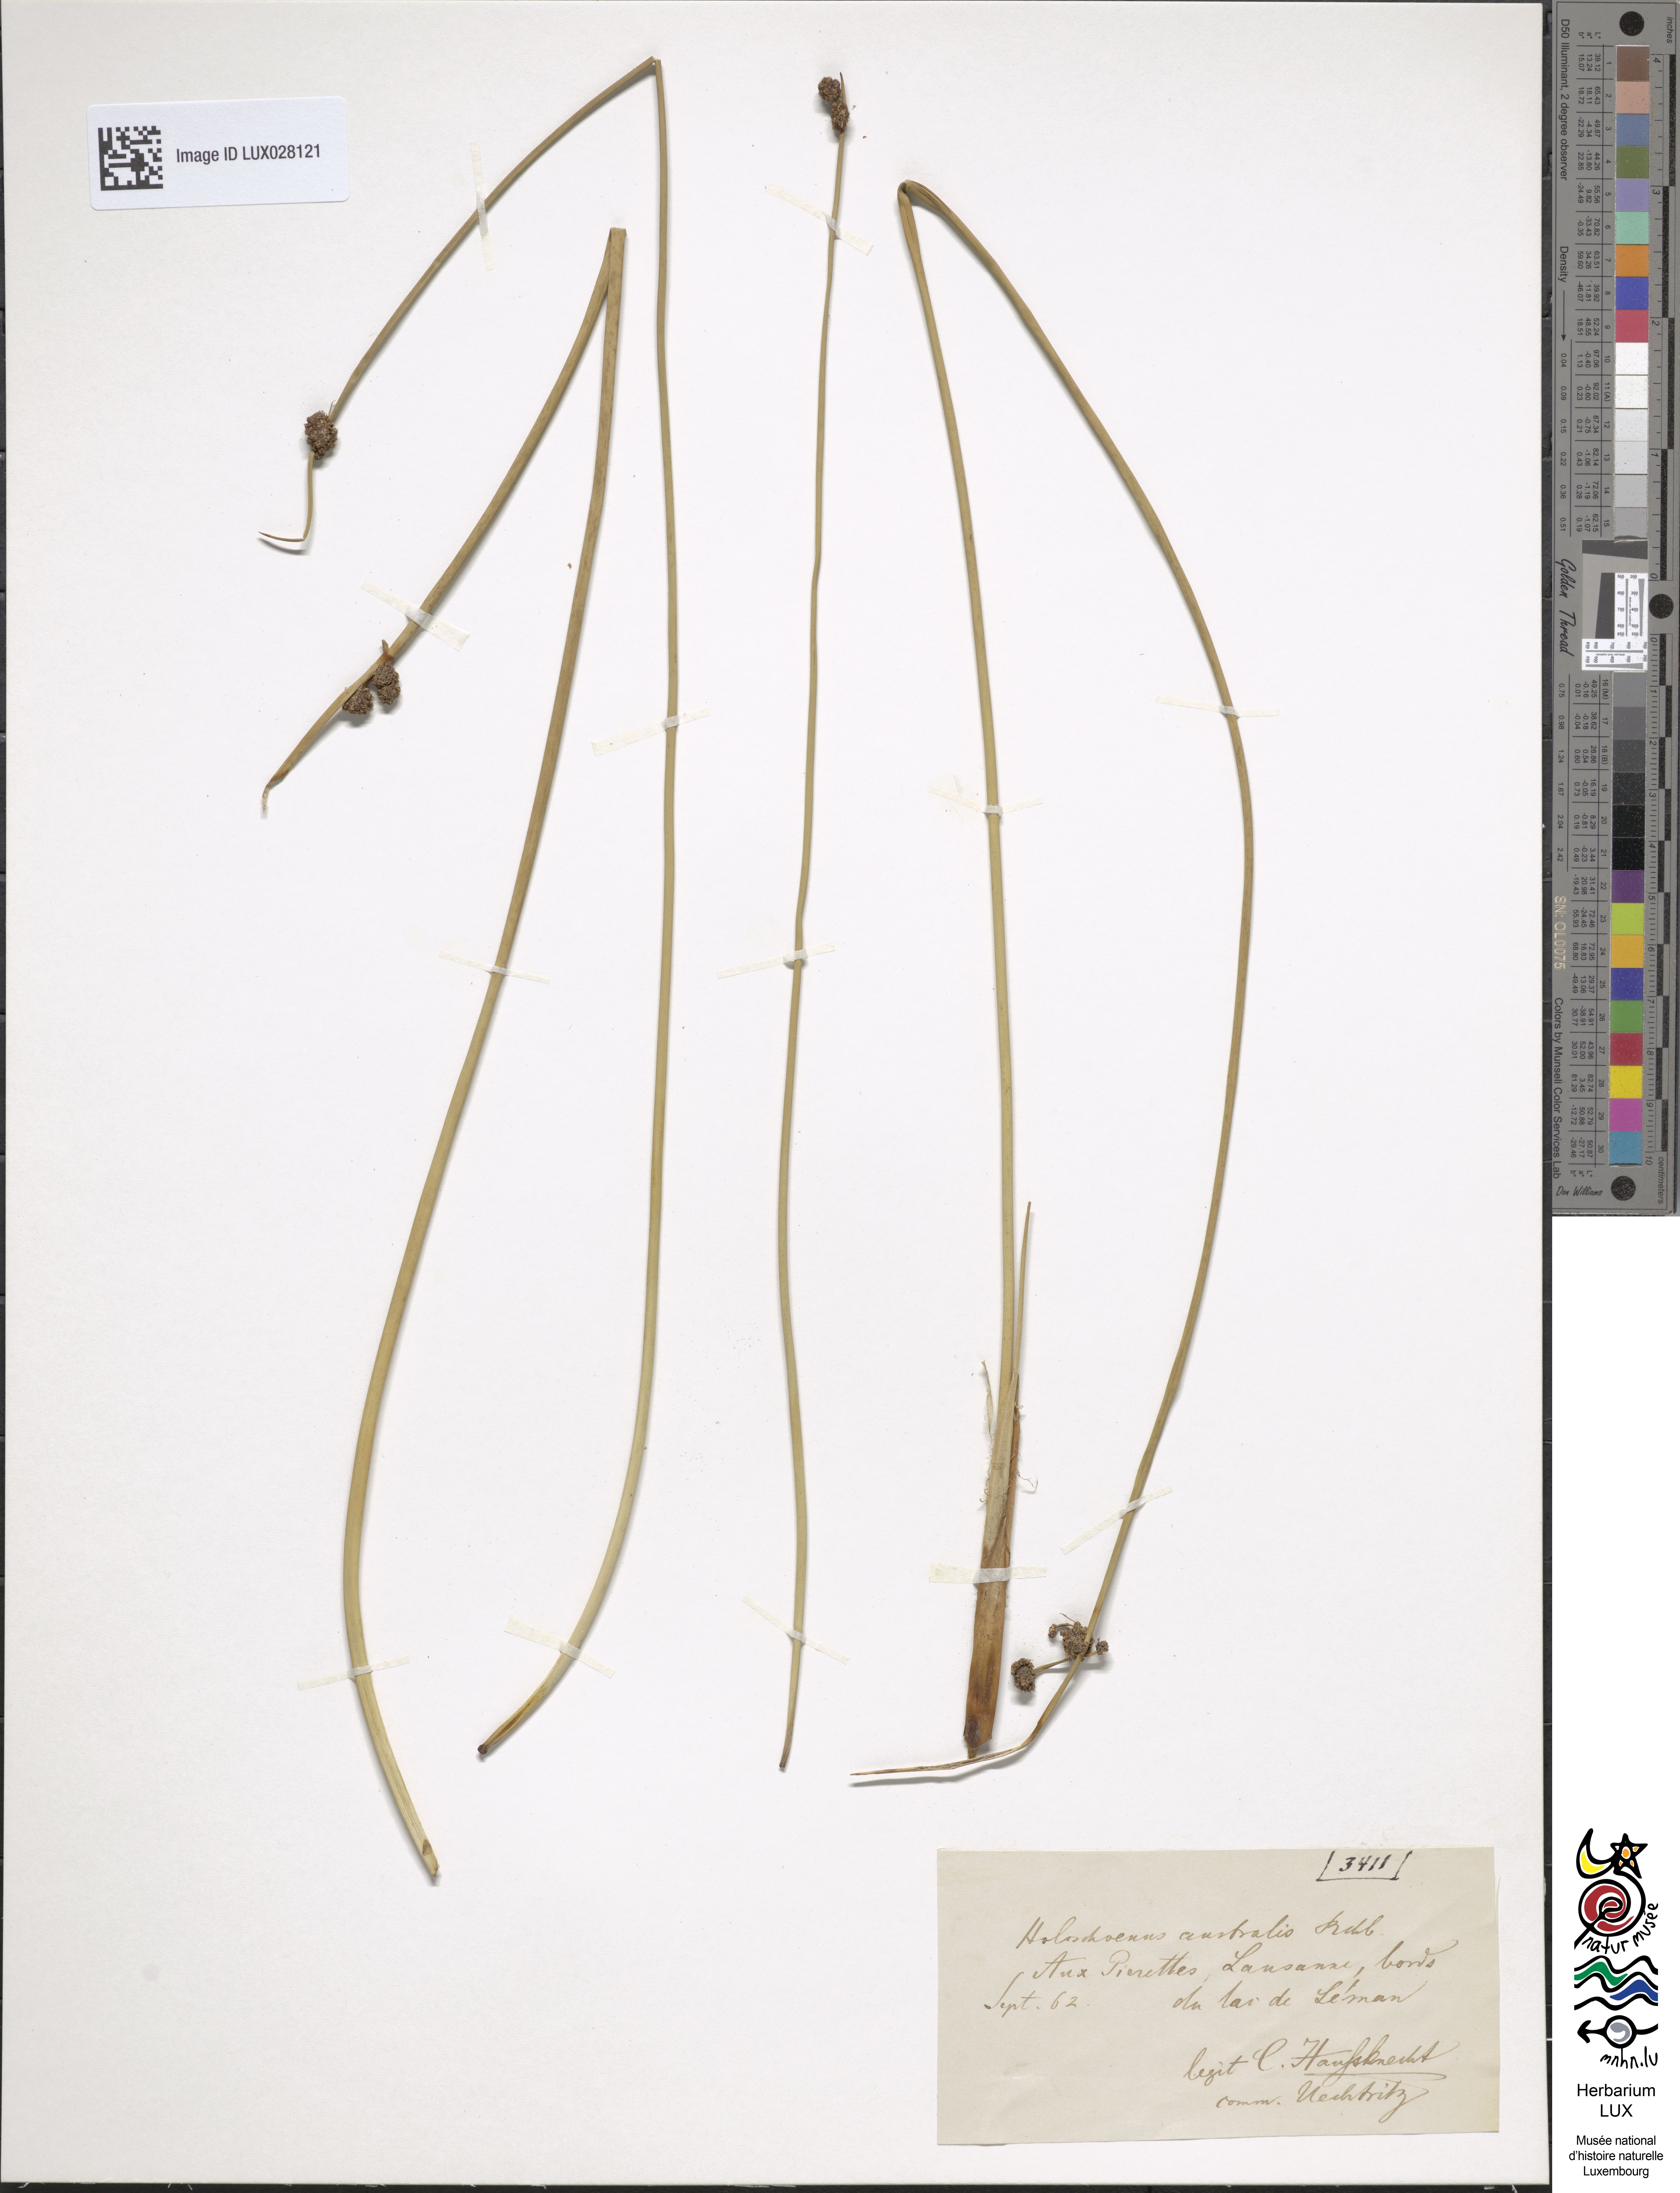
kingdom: Plantae
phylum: Tracheophyta
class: Liliopsida
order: Poales
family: Cyperaceae
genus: Scirpoides
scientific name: Scirpoides holoschoenus
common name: Round-headed club-rush
